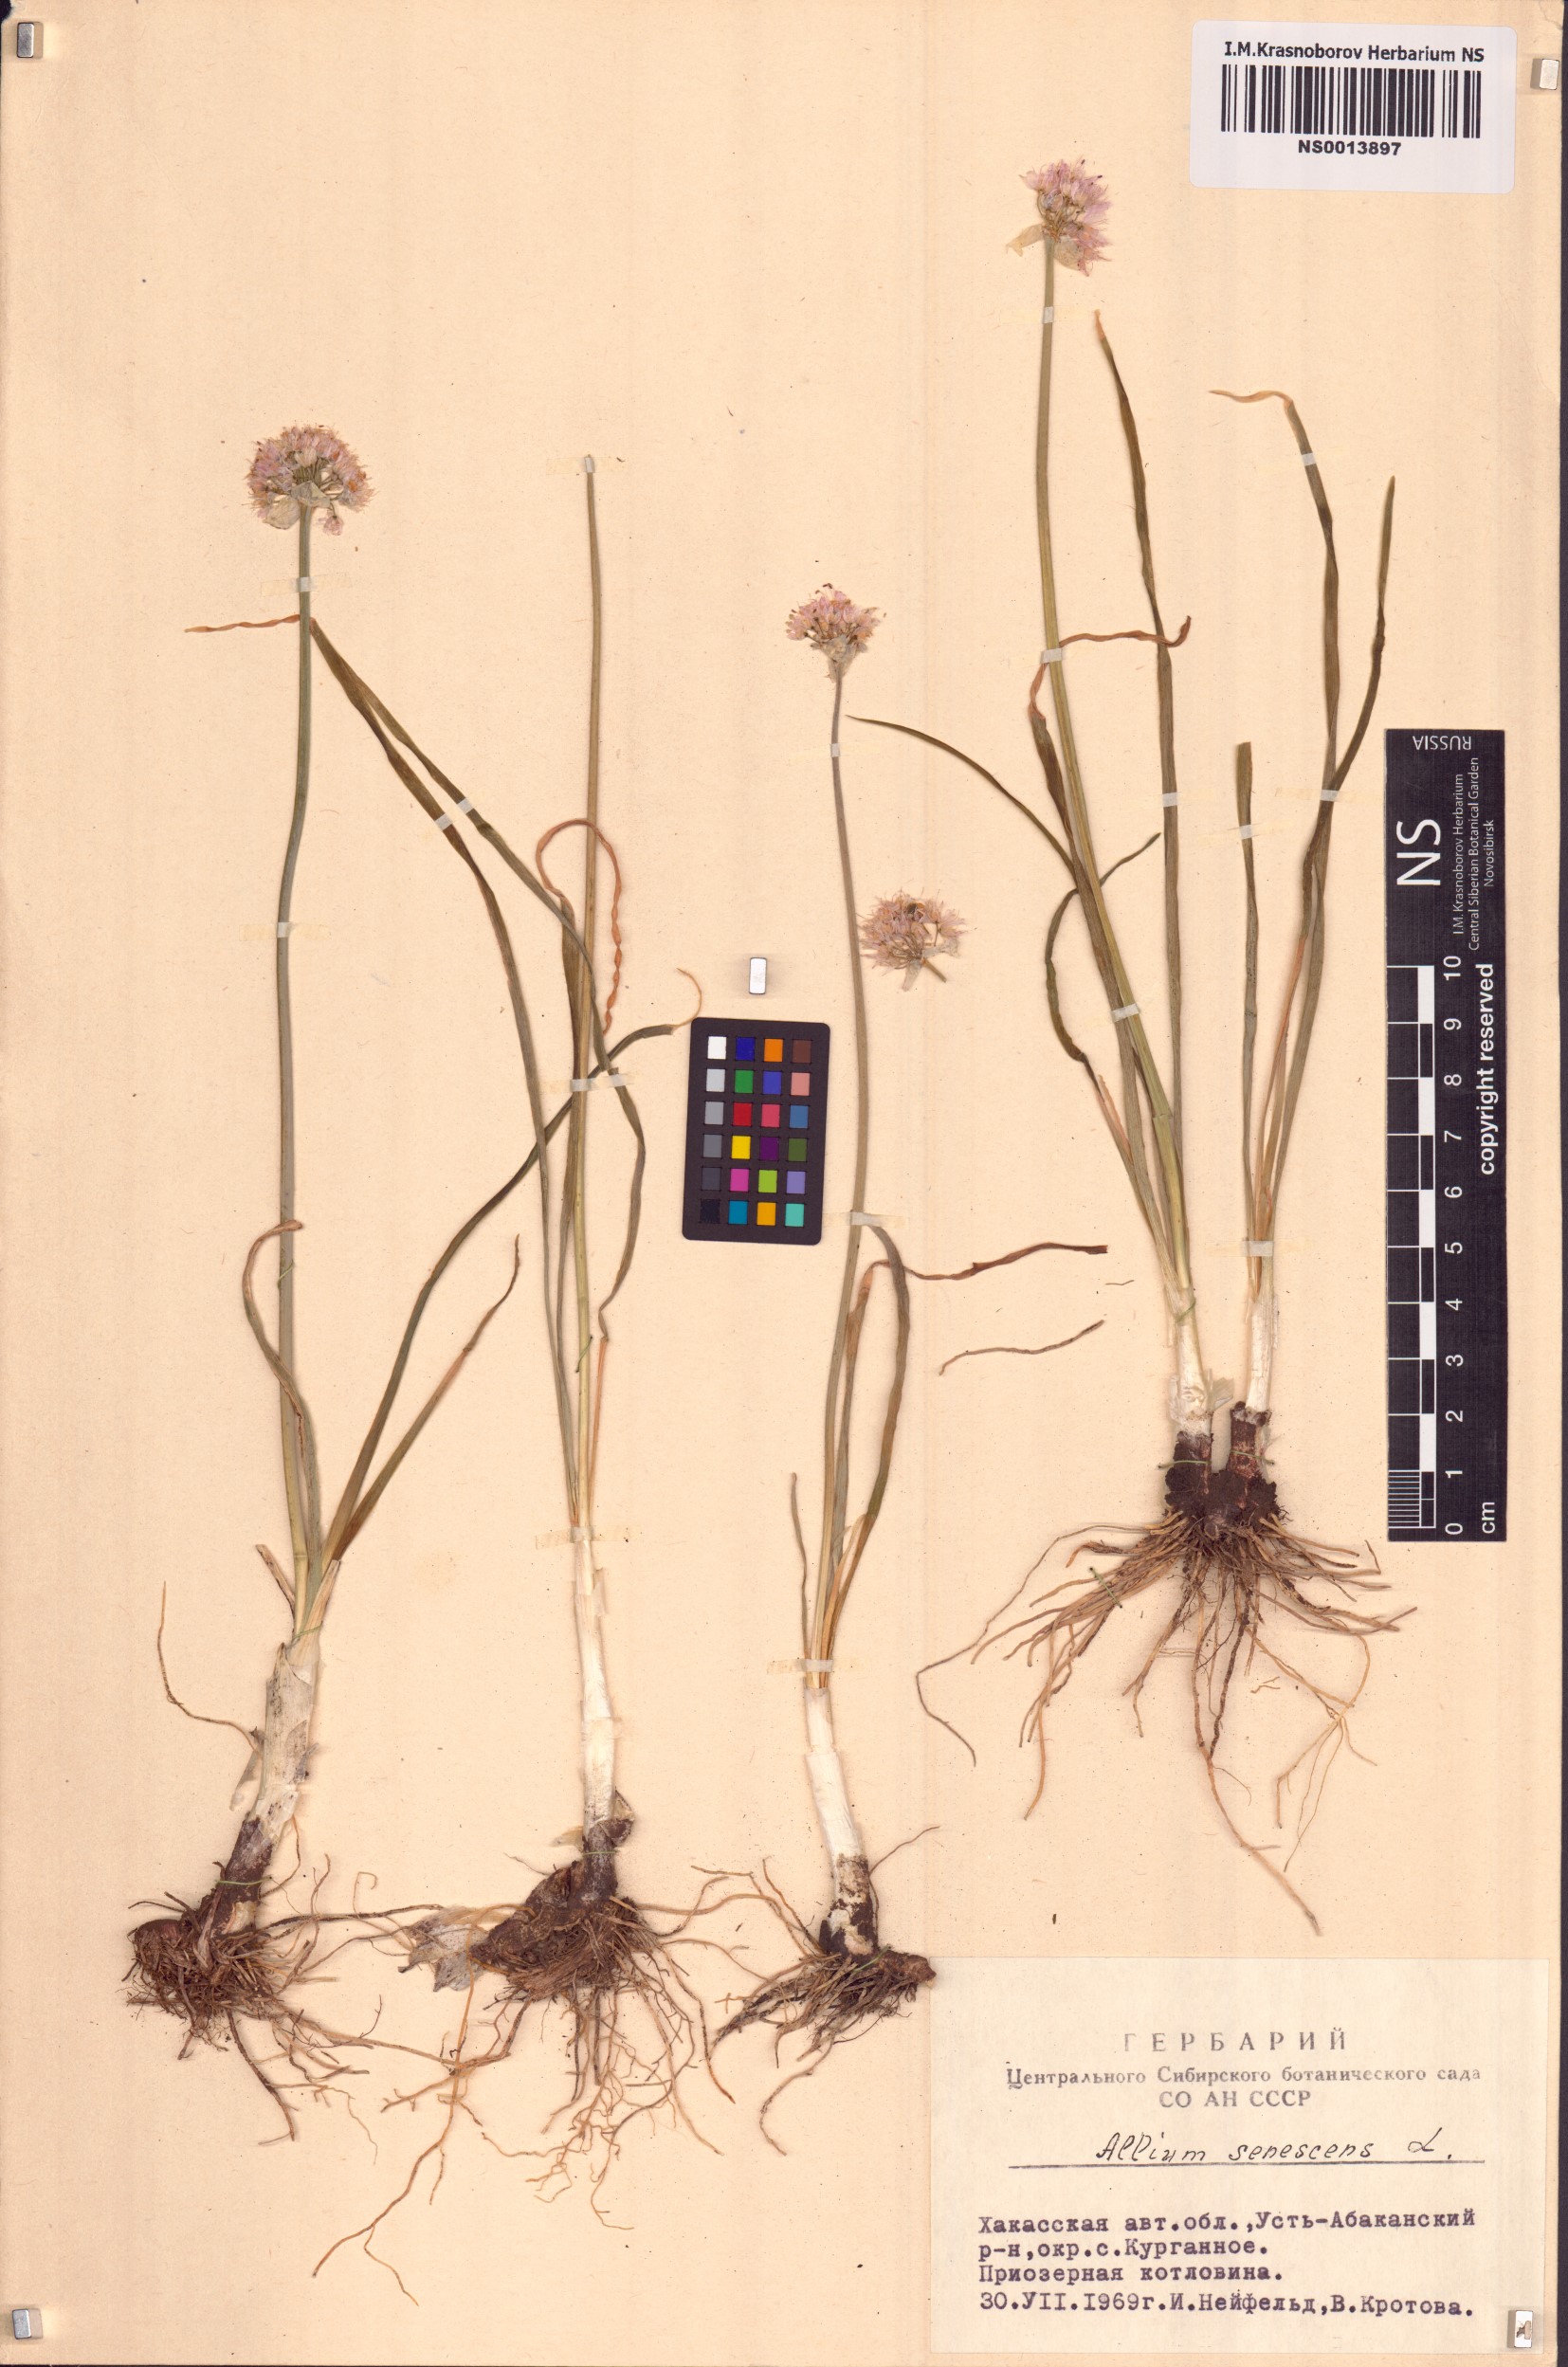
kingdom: Plantae
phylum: Tracheophyta
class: Liliopsida
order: Asparagales
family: Amaryllidaceae
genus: Allium
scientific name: Allium senescens
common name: German garlic
